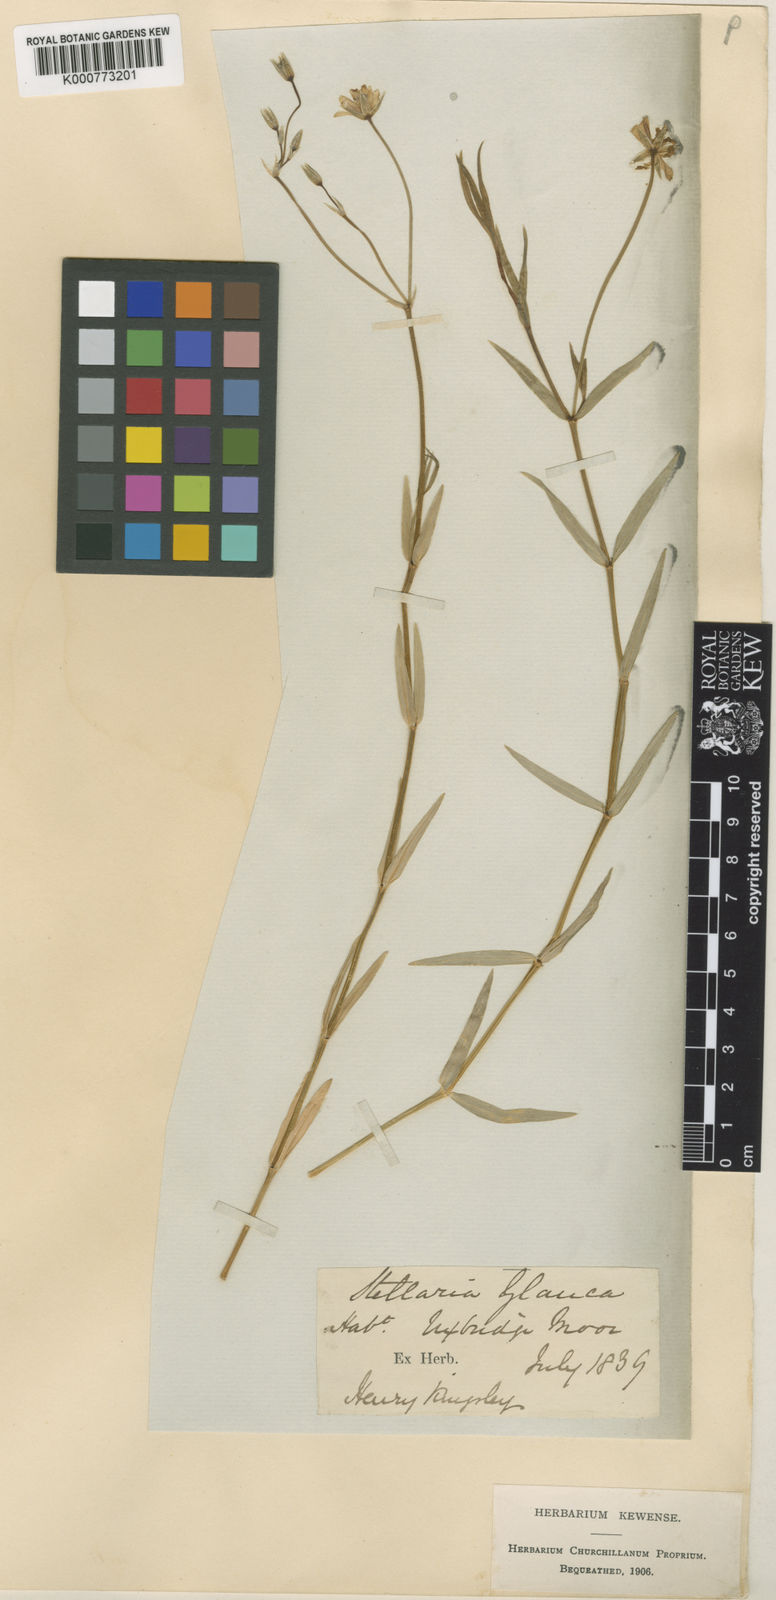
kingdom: Plantae
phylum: Tracheophyta
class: Magnoliopsida
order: Caryophyllales
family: Caryophyllaceae
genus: Stellaria
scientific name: Stellaria
